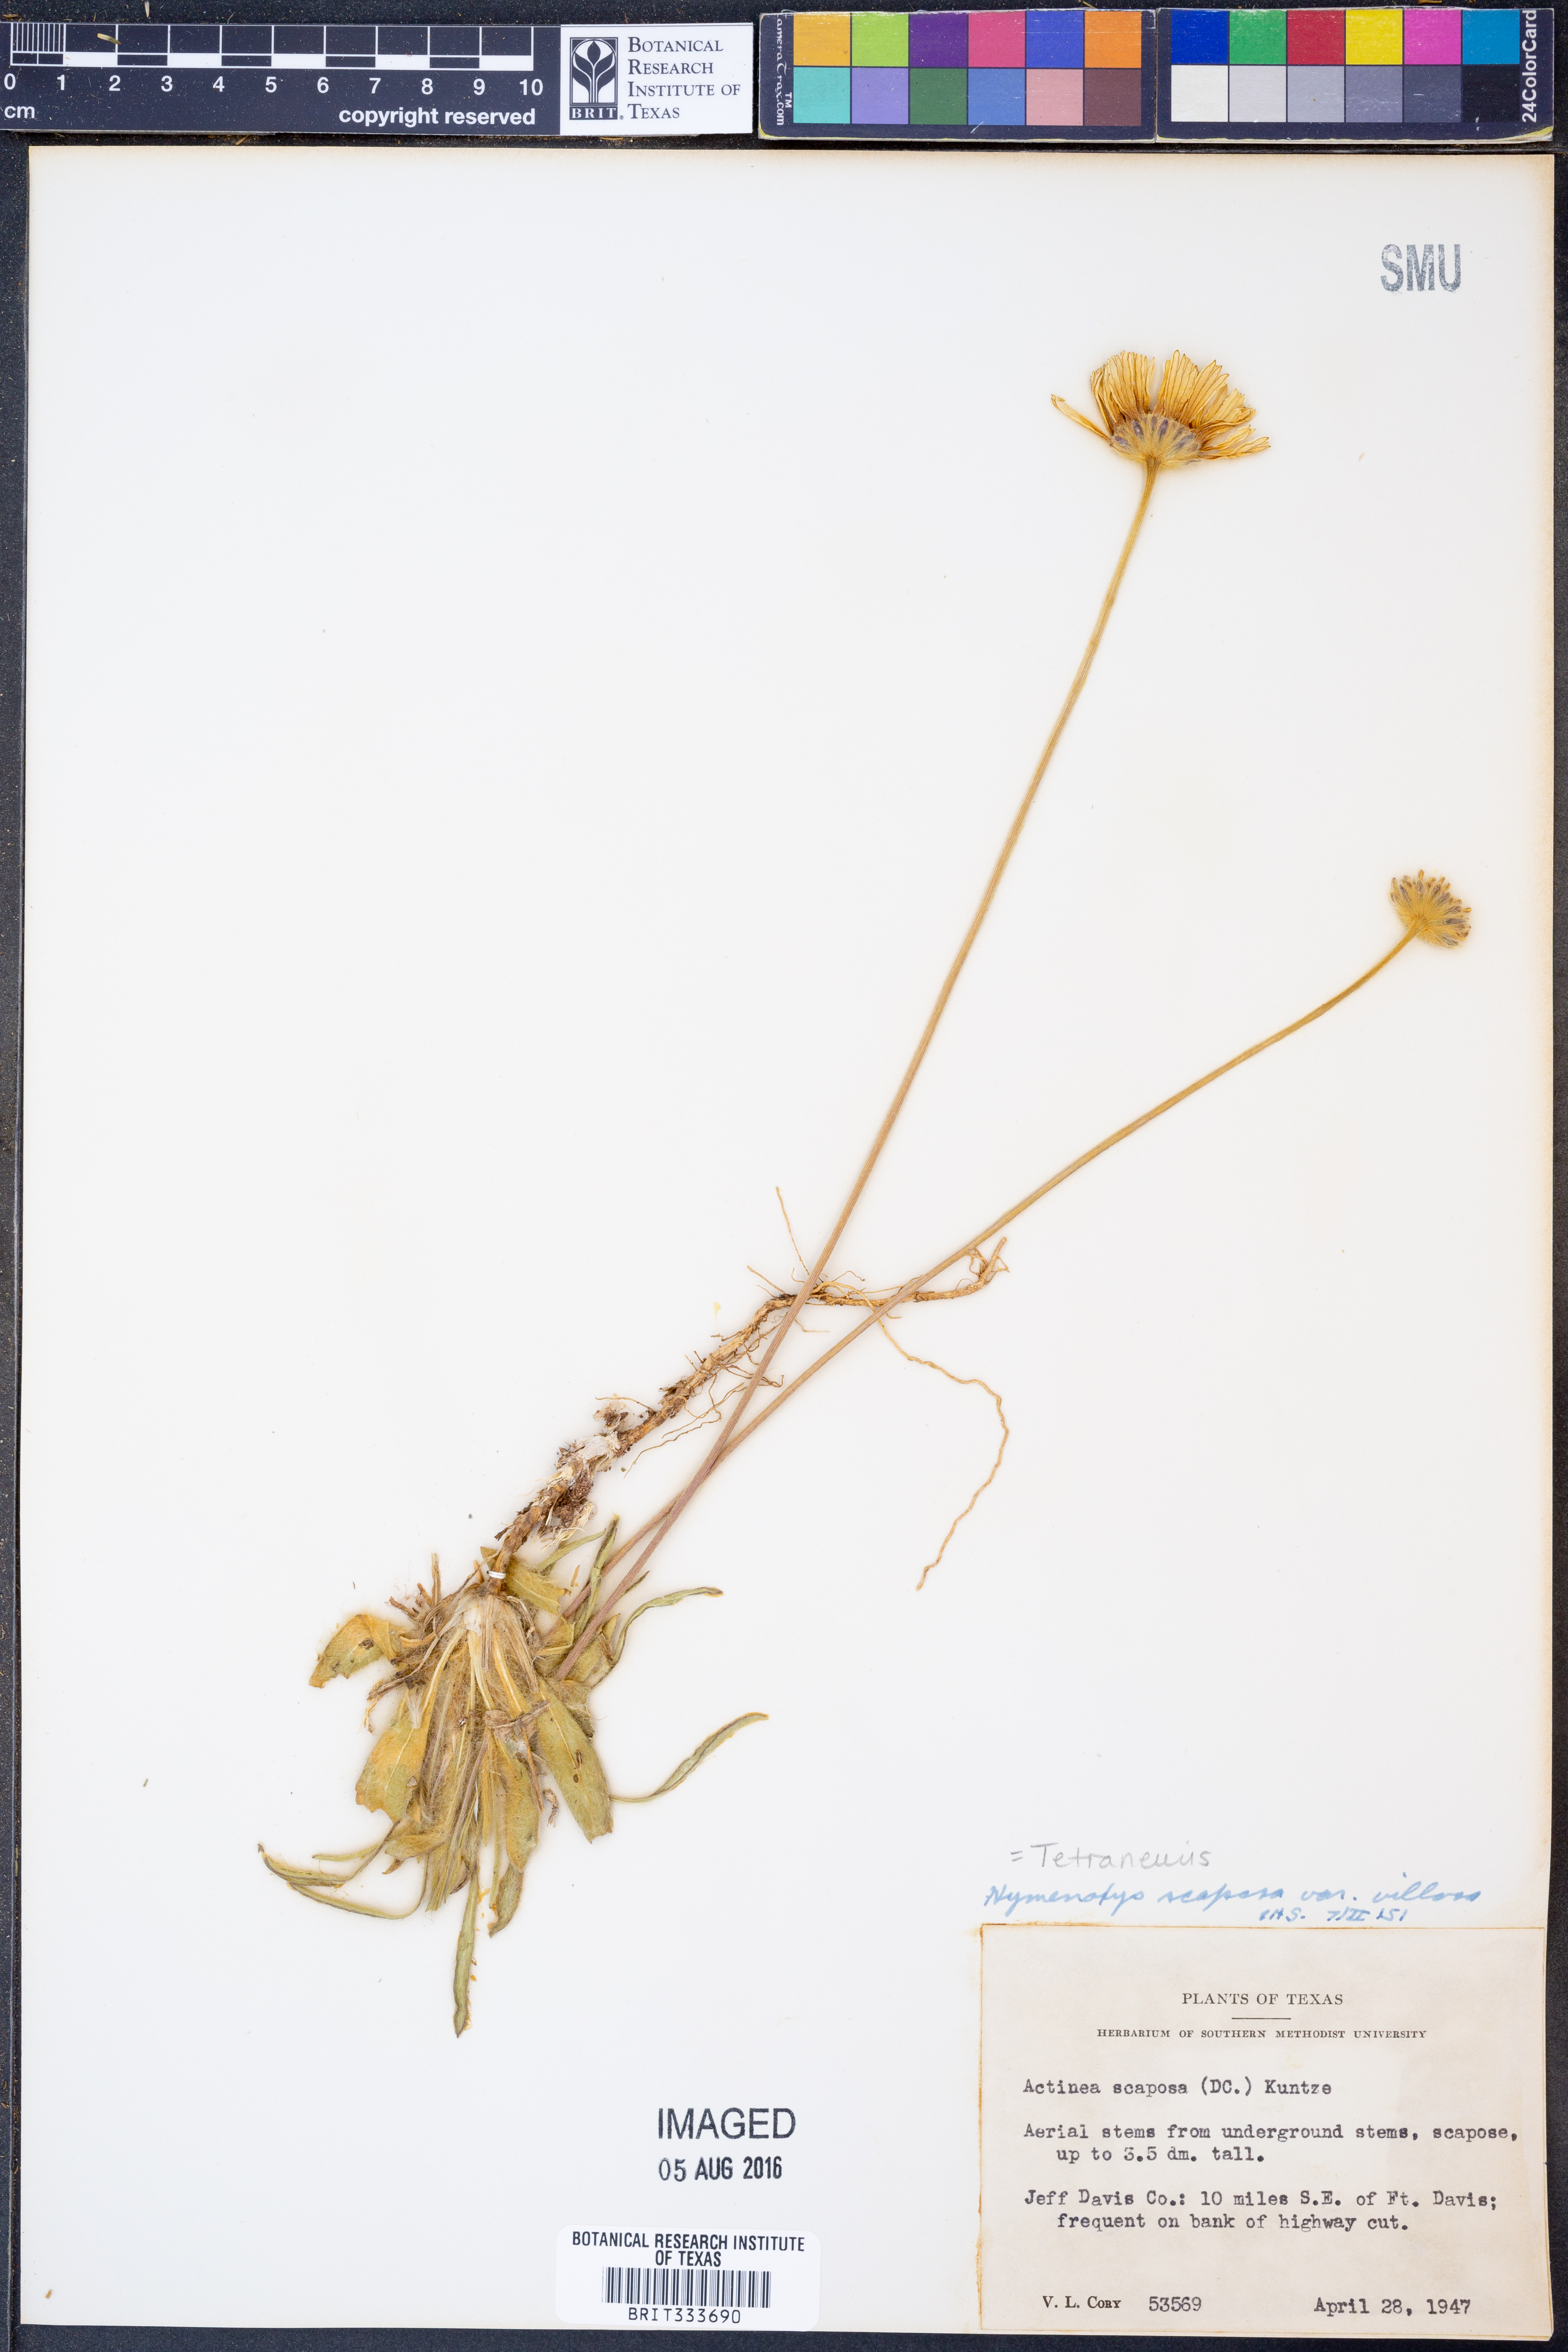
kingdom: Plantae
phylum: Tracheophyta
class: Magnoliopsida
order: Asterales
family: Asteraceae
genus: Tetraneuris
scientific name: Tetraneuris scaposa
